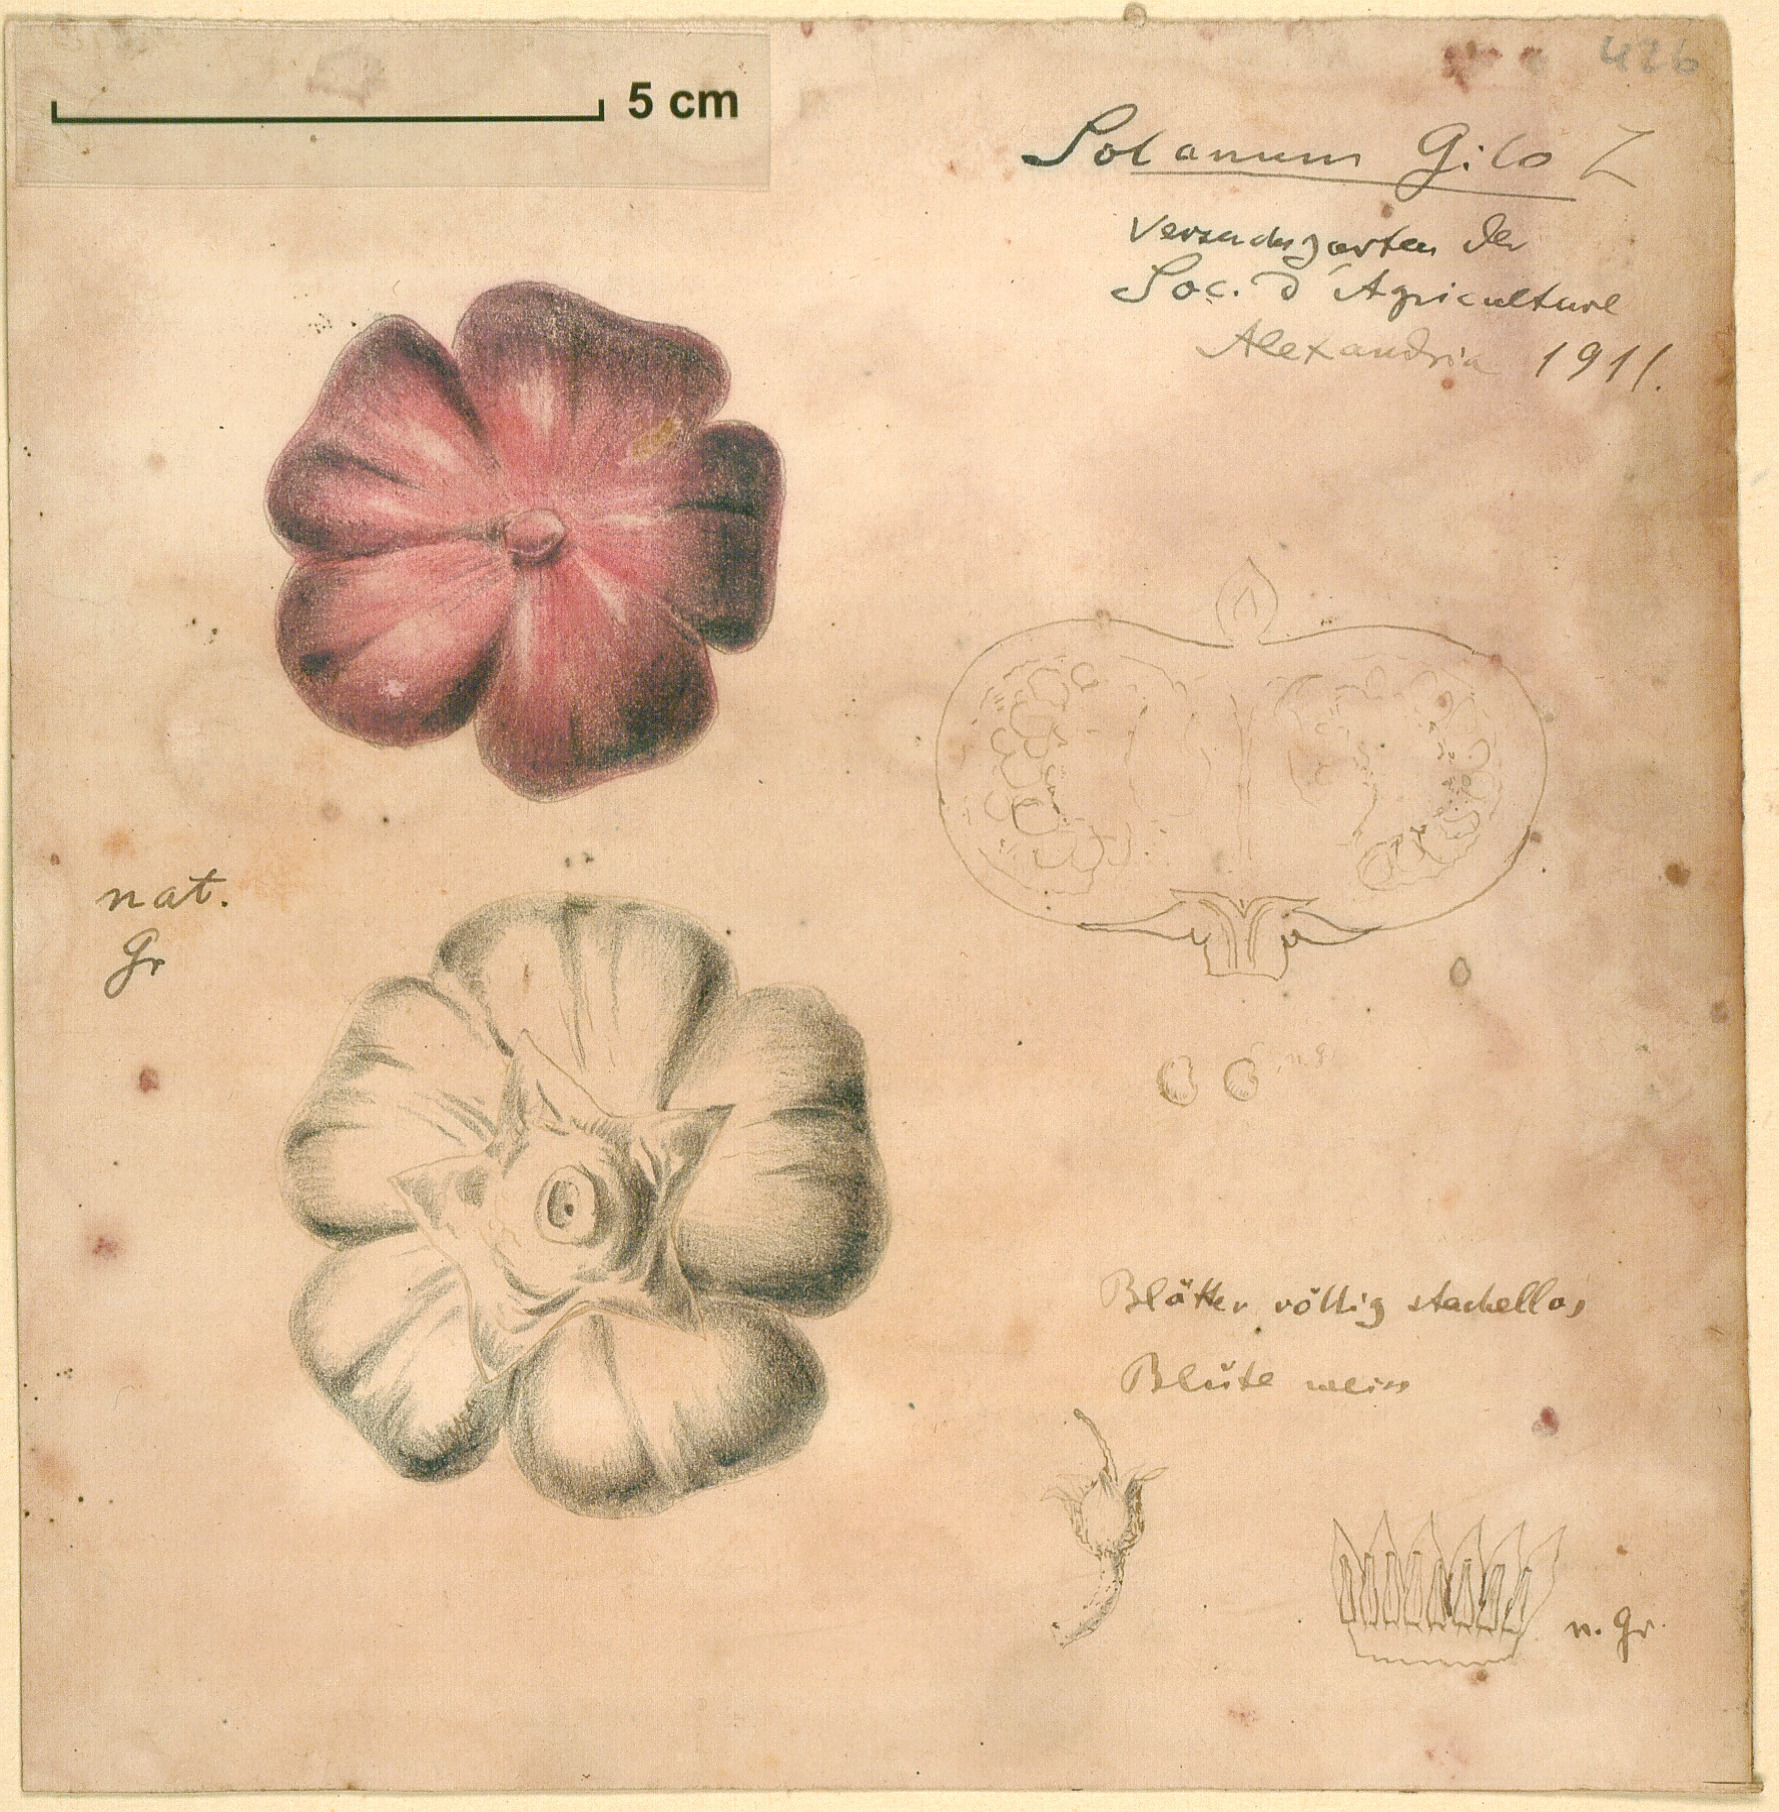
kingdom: Plantae
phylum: Tracheophyta
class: Magnoliopsida
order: Solanales
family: Solanaceae
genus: Solanum
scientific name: Solanum aethiopicum
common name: Gilo
